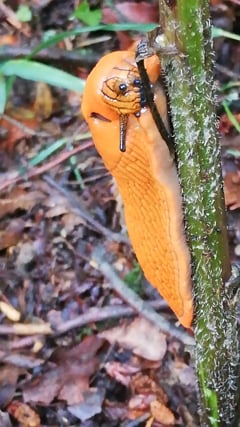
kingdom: Animalia
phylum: Mollusca
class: Gastropoda
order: Stylommatophora
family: Arionidae
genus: Arion
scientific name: Arion
